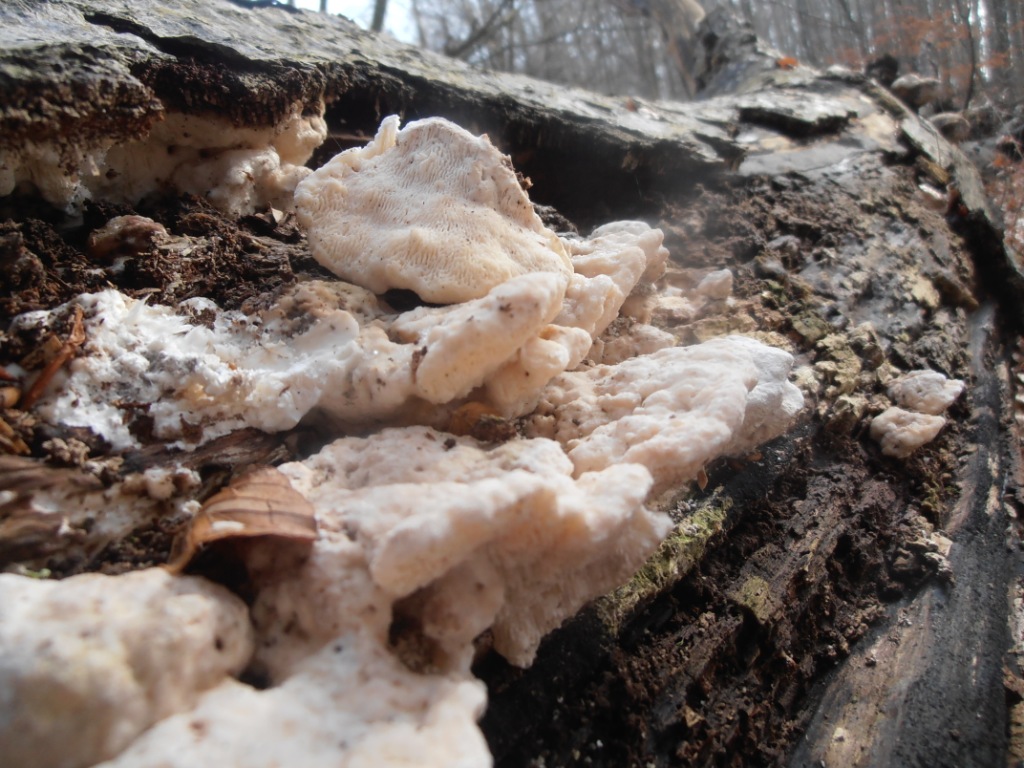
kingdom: Fungi
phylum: Basidiomycota
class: Agaricomycetes
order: Polyporales
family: Polyporaceae
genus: Trametes
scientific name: Trametes gibbosa
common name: puklet læderporesvamp
